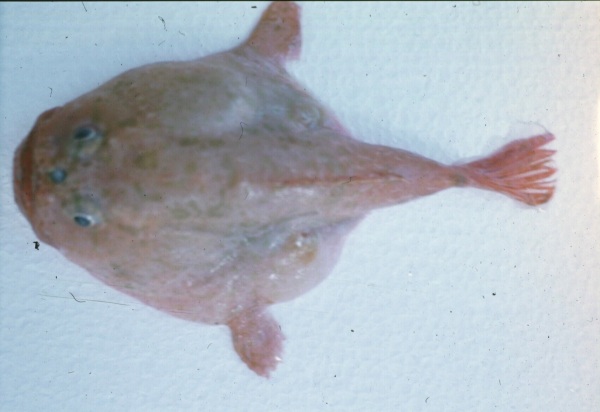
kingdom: Animalia
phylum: Chordata
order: Lophiiformes
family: Chaunacidae
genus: Chaunax
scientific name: Chaunax penicillatus
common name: Fluffylure frogmouth
